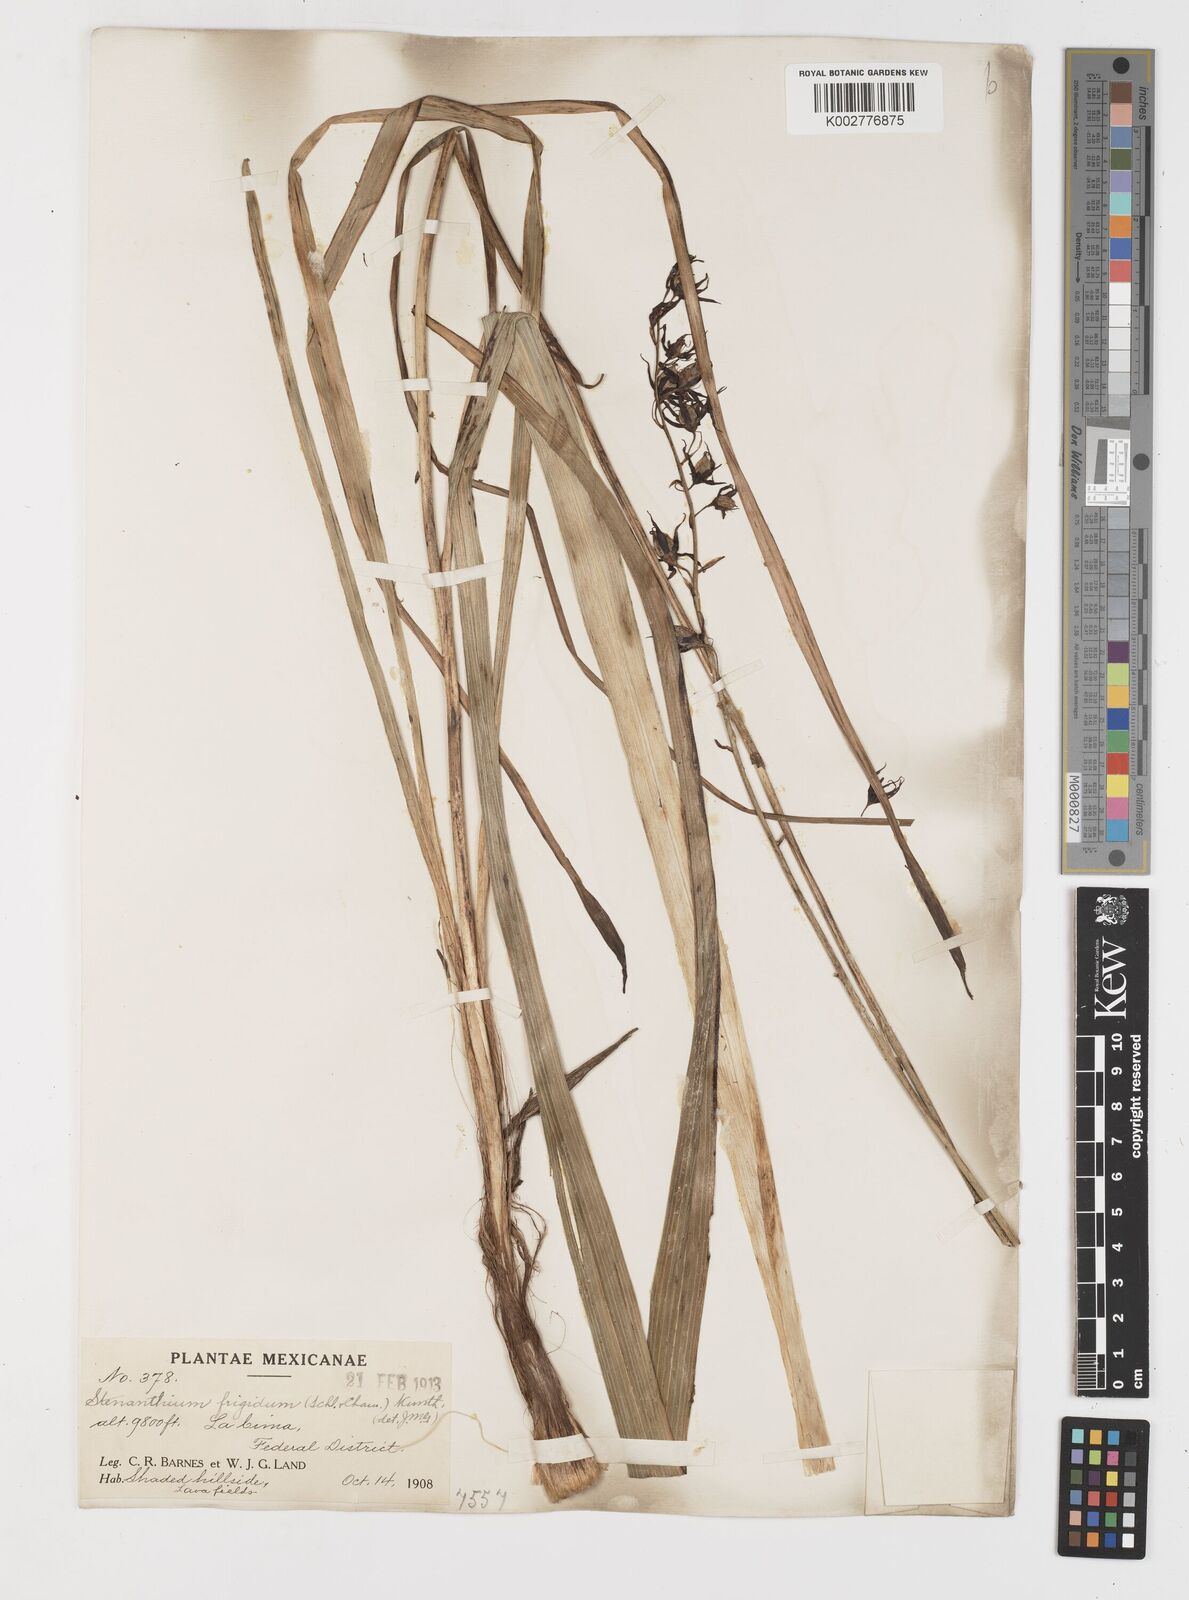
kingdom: Plantae
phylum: Tracheophyta
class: Liliopsida
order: Liliales
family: Melanthiaceae
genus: Anticlea
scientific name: Anticlea frigida
